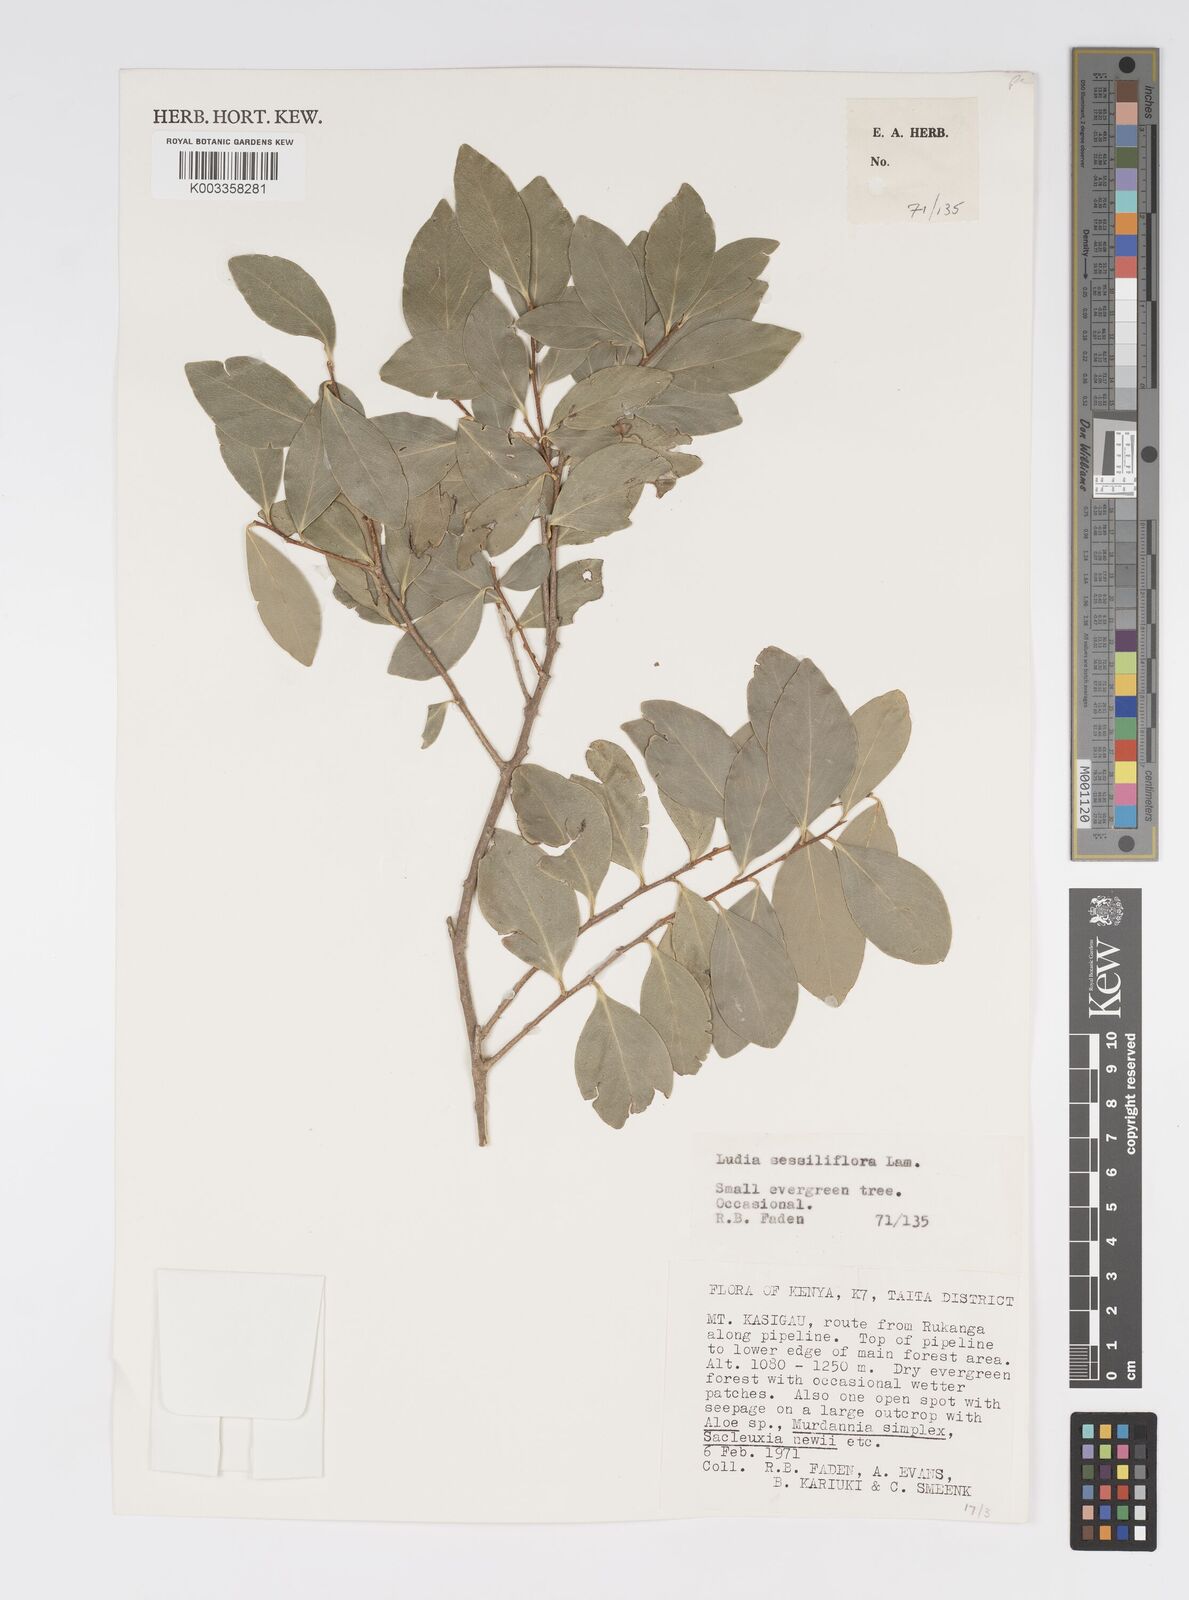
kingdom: Plantae
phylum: Tracheophyta
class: Magnoliopsida
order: Malpighiales
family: Salicaceae
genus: Ludia
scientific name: Ludia mauritiana
